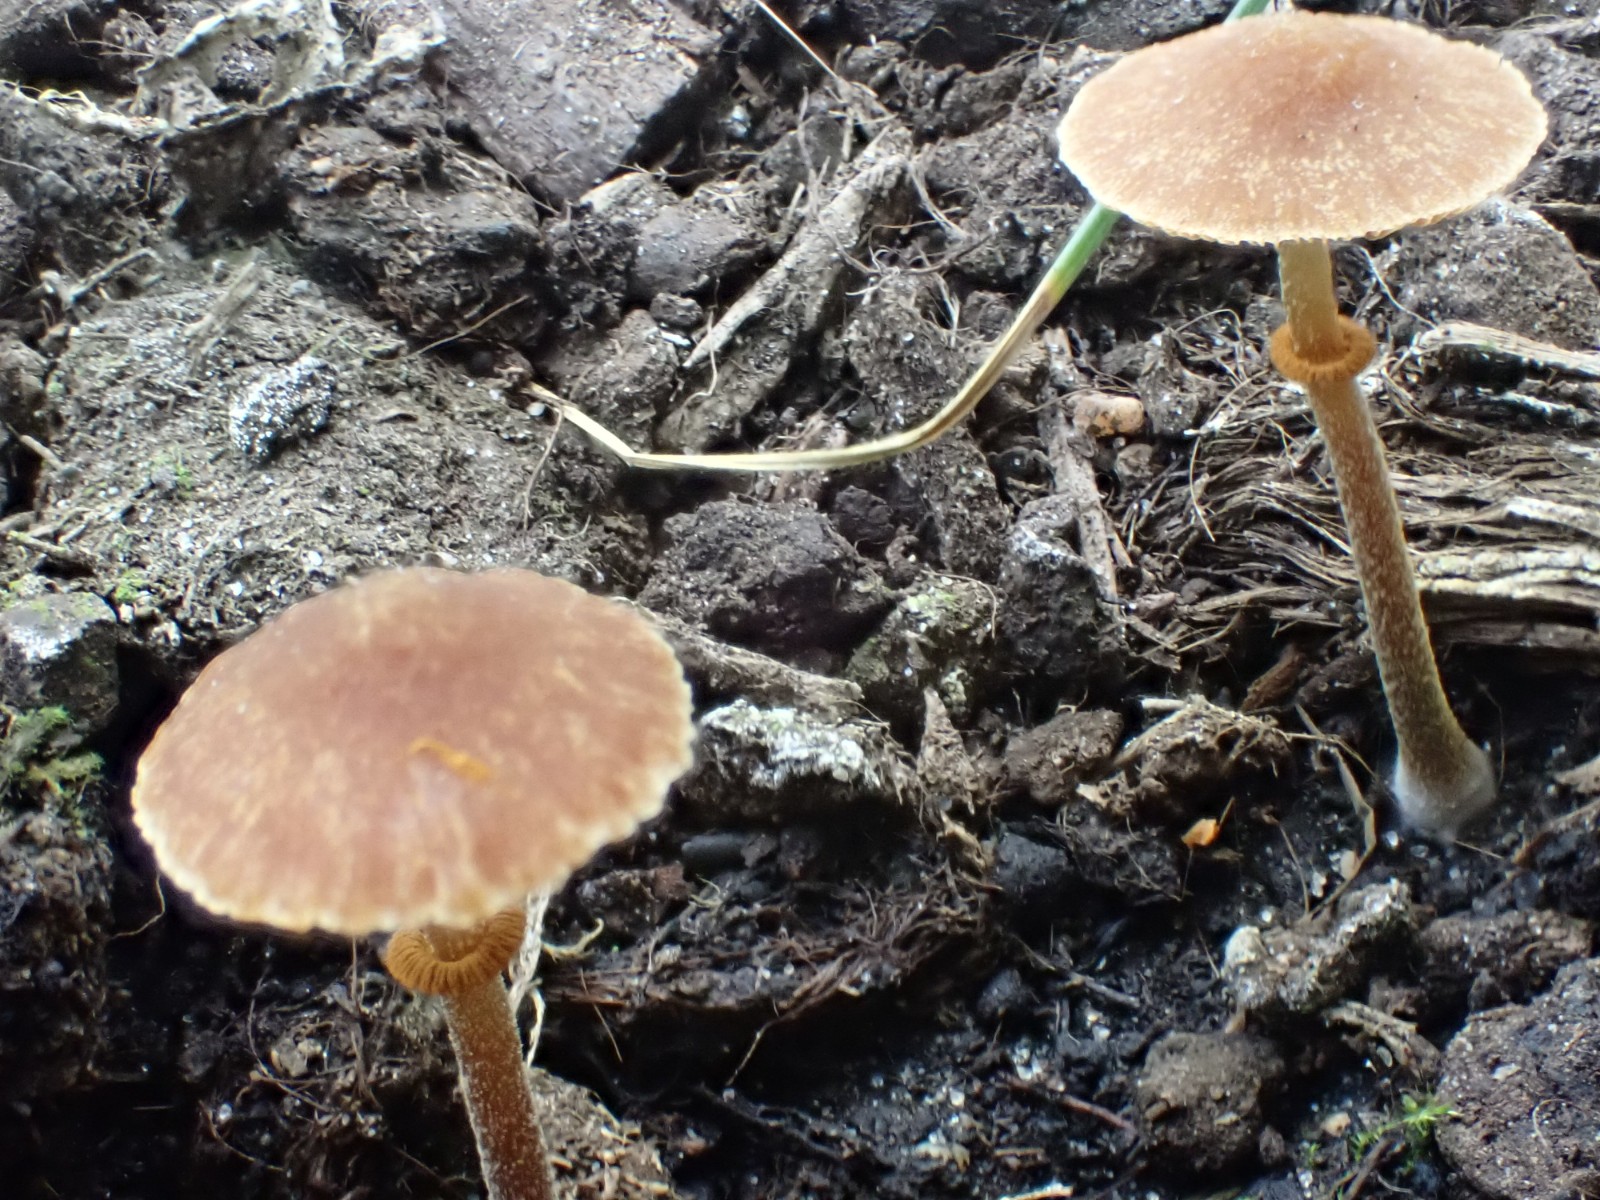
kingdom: Fungi
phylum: Basidiomycota
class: Agaricomycetes
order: Agaricales
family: Bolbitiaceae
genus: Conocybe
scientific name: Conocybe rugosa
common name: giftig dansehat
